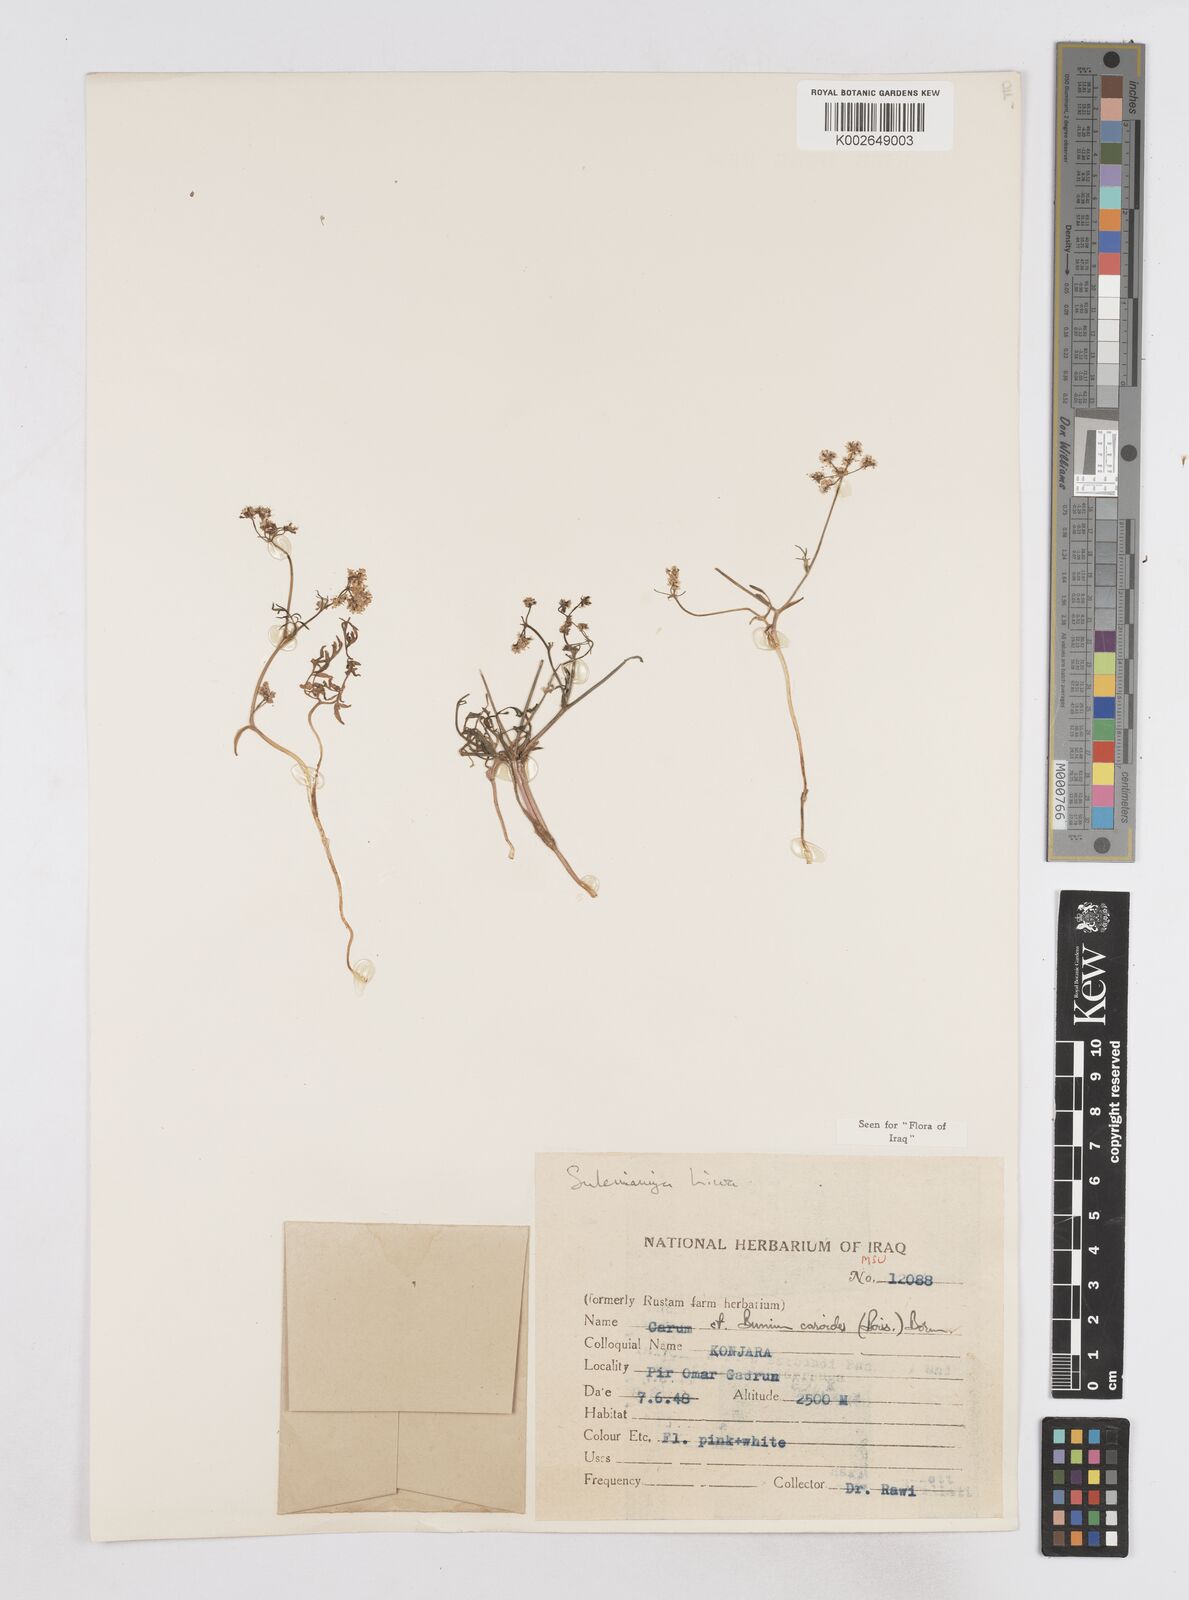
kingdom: Plantae
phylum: Tracheophyta
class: Magnoliopsida
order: Apiales
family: Apiaceae
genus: Elwendia
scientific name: Elwendia caroides
